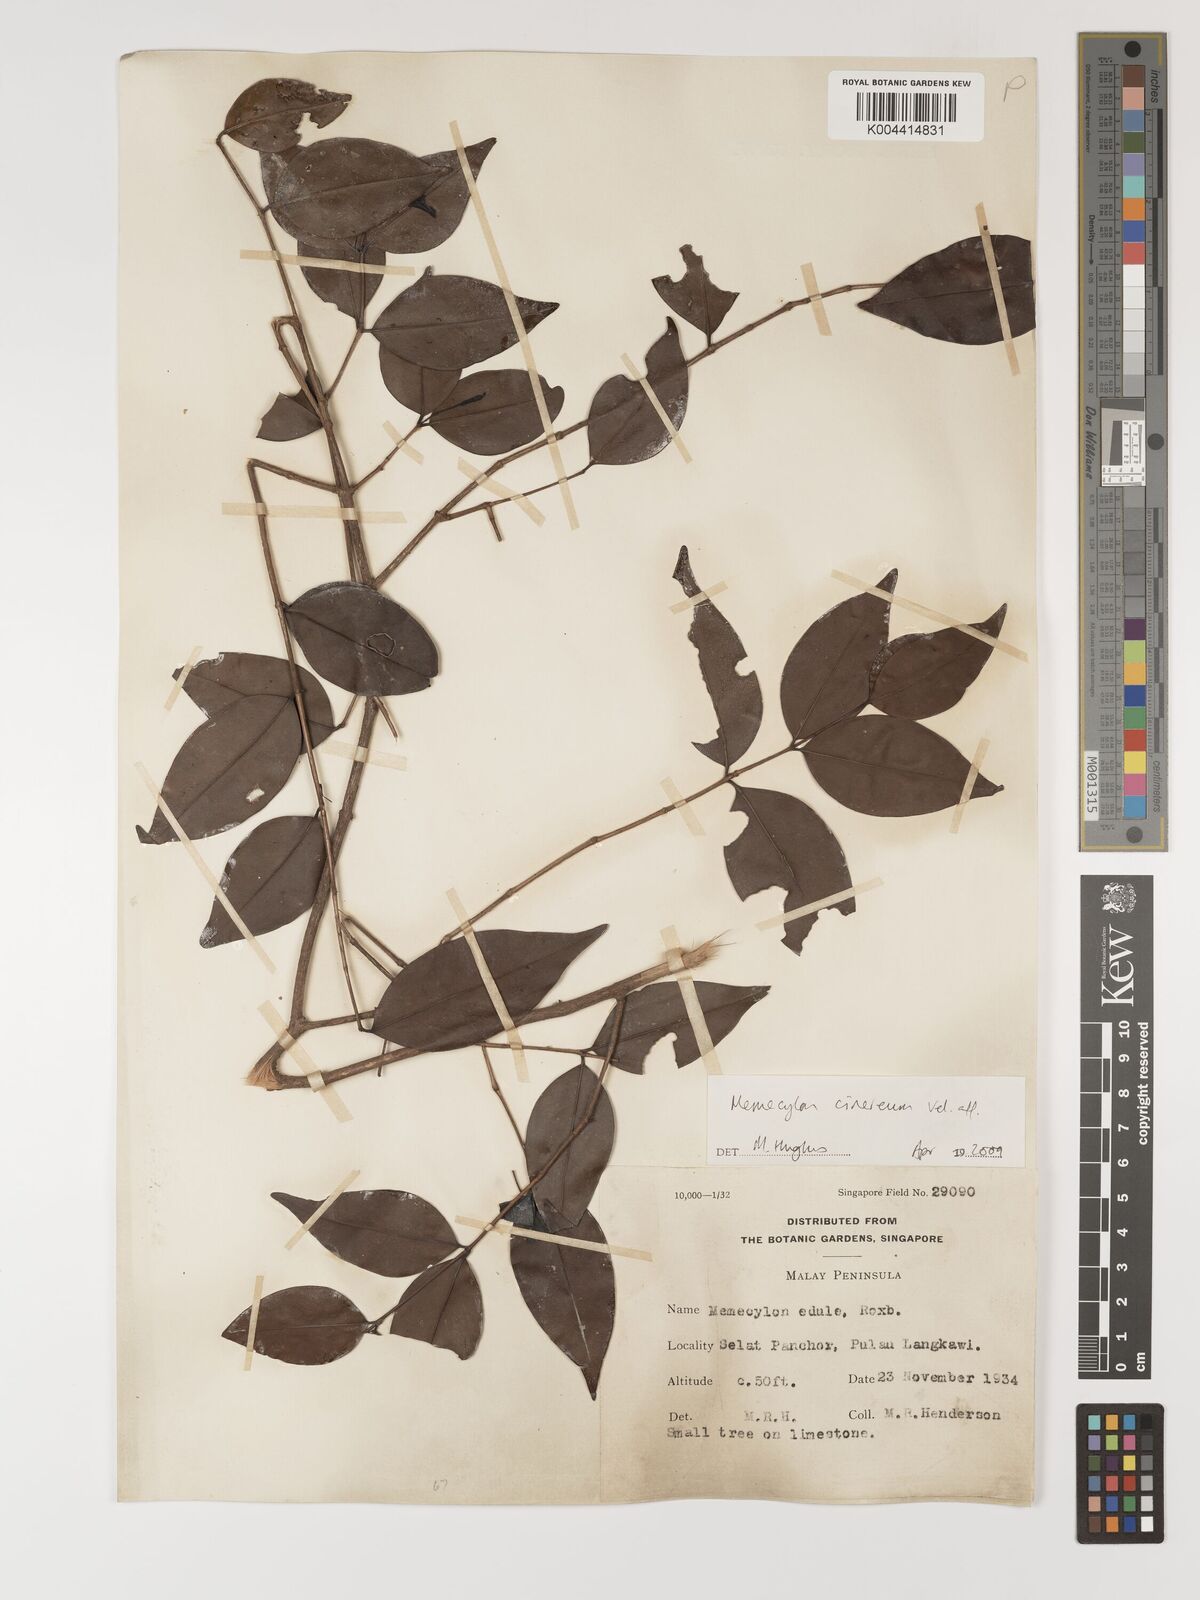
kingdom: Plantae
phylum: Tracheophyta
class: Magnoliopsida
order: Myrtales
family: Melastomataceae
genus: Memecylon
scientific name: Memecylon cinereum
